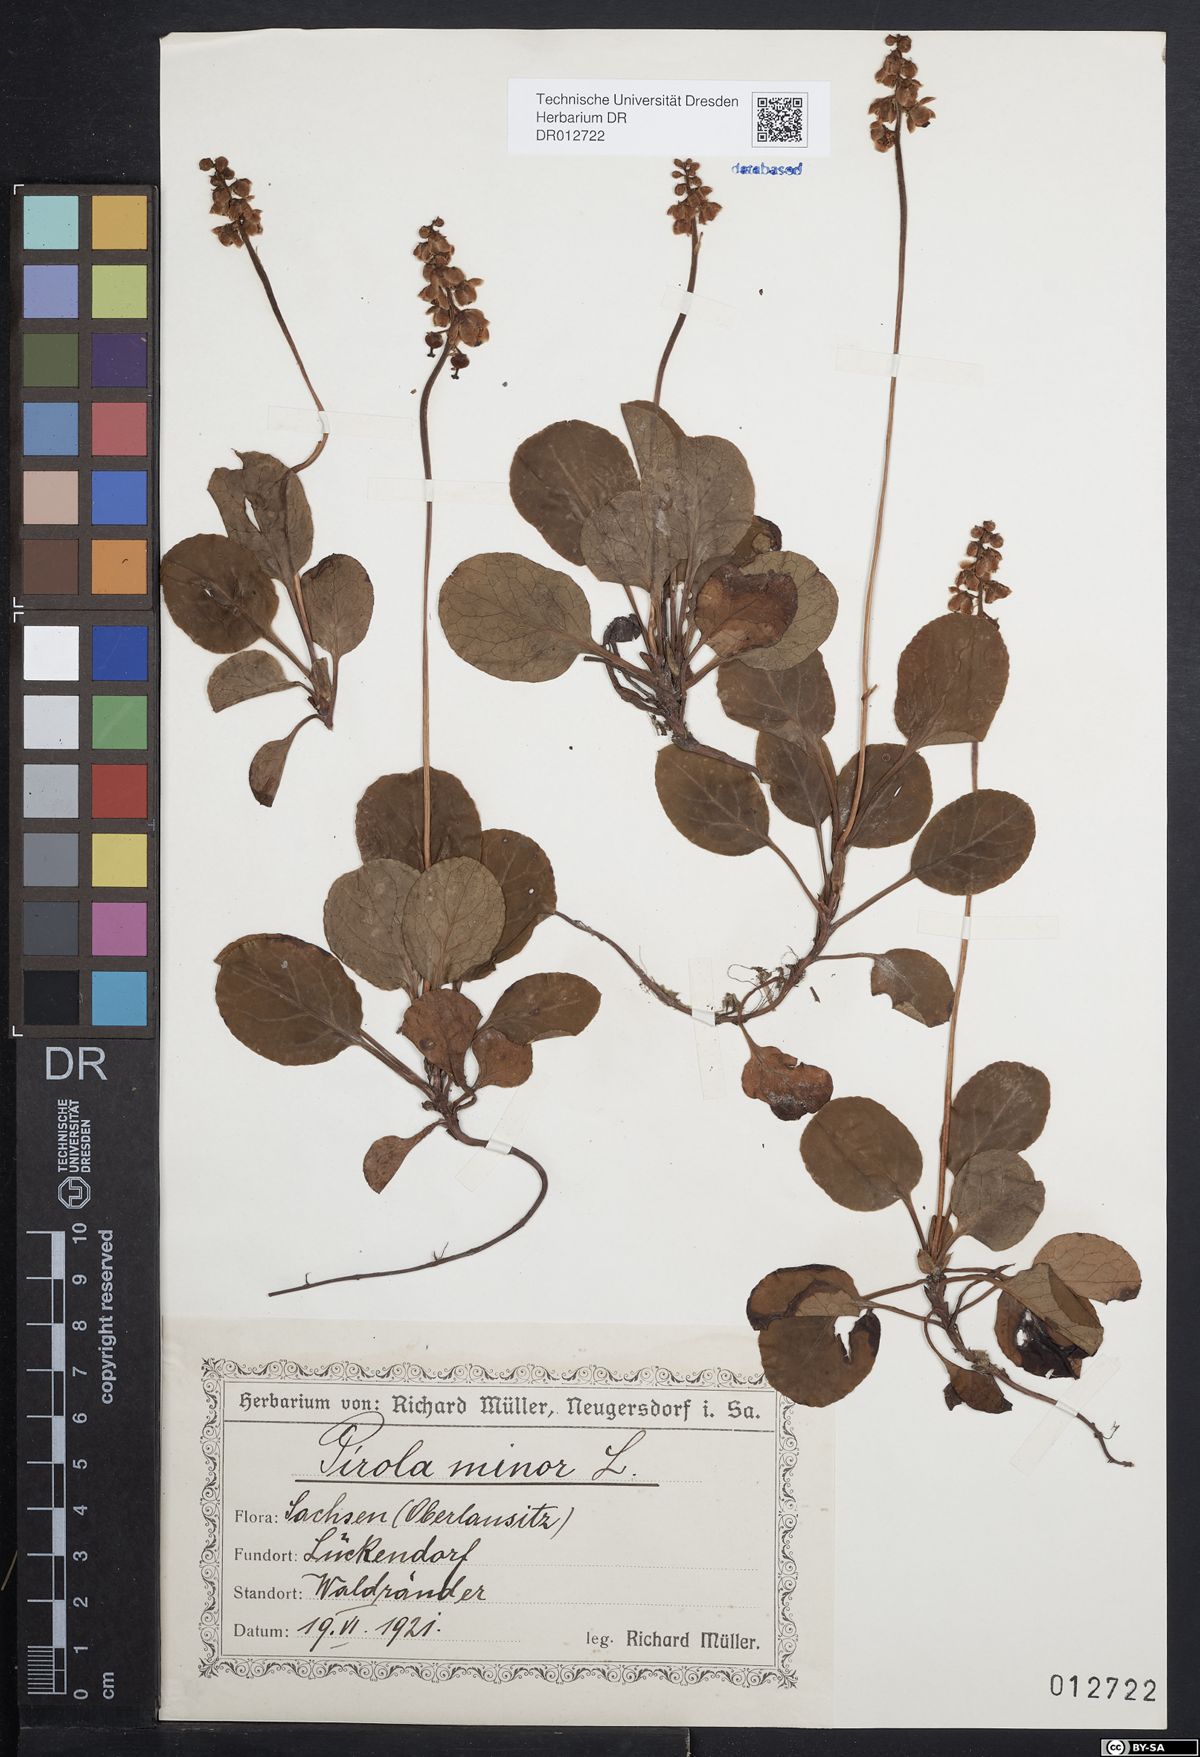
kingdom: Plantae
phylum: Tracheophyta
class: Magnoliopsida
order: Ericales
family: Ericaceae
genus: Pyrola
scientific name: Pyrola minor
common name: Common wintergreen
